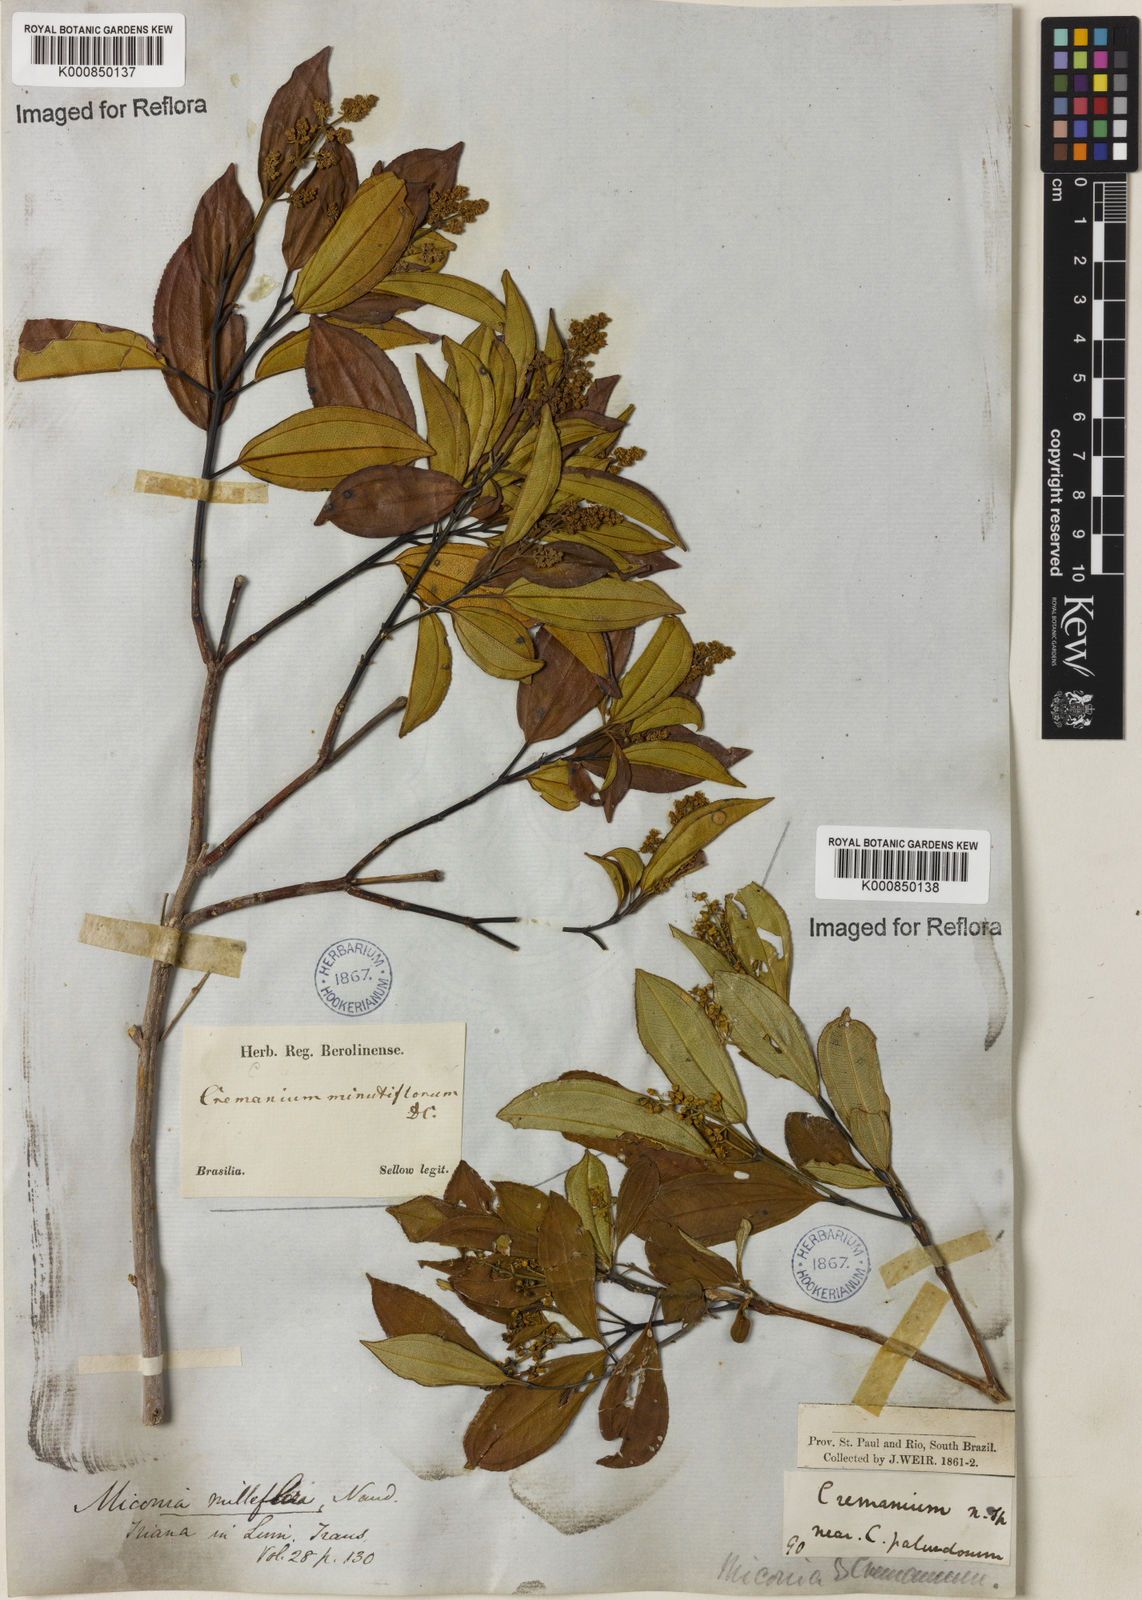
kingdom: Plantae
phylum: Tracheophyta
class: Magnoliopsida
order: Myrtales
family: Melastomataceae
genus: Miconia
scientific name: Miconia
